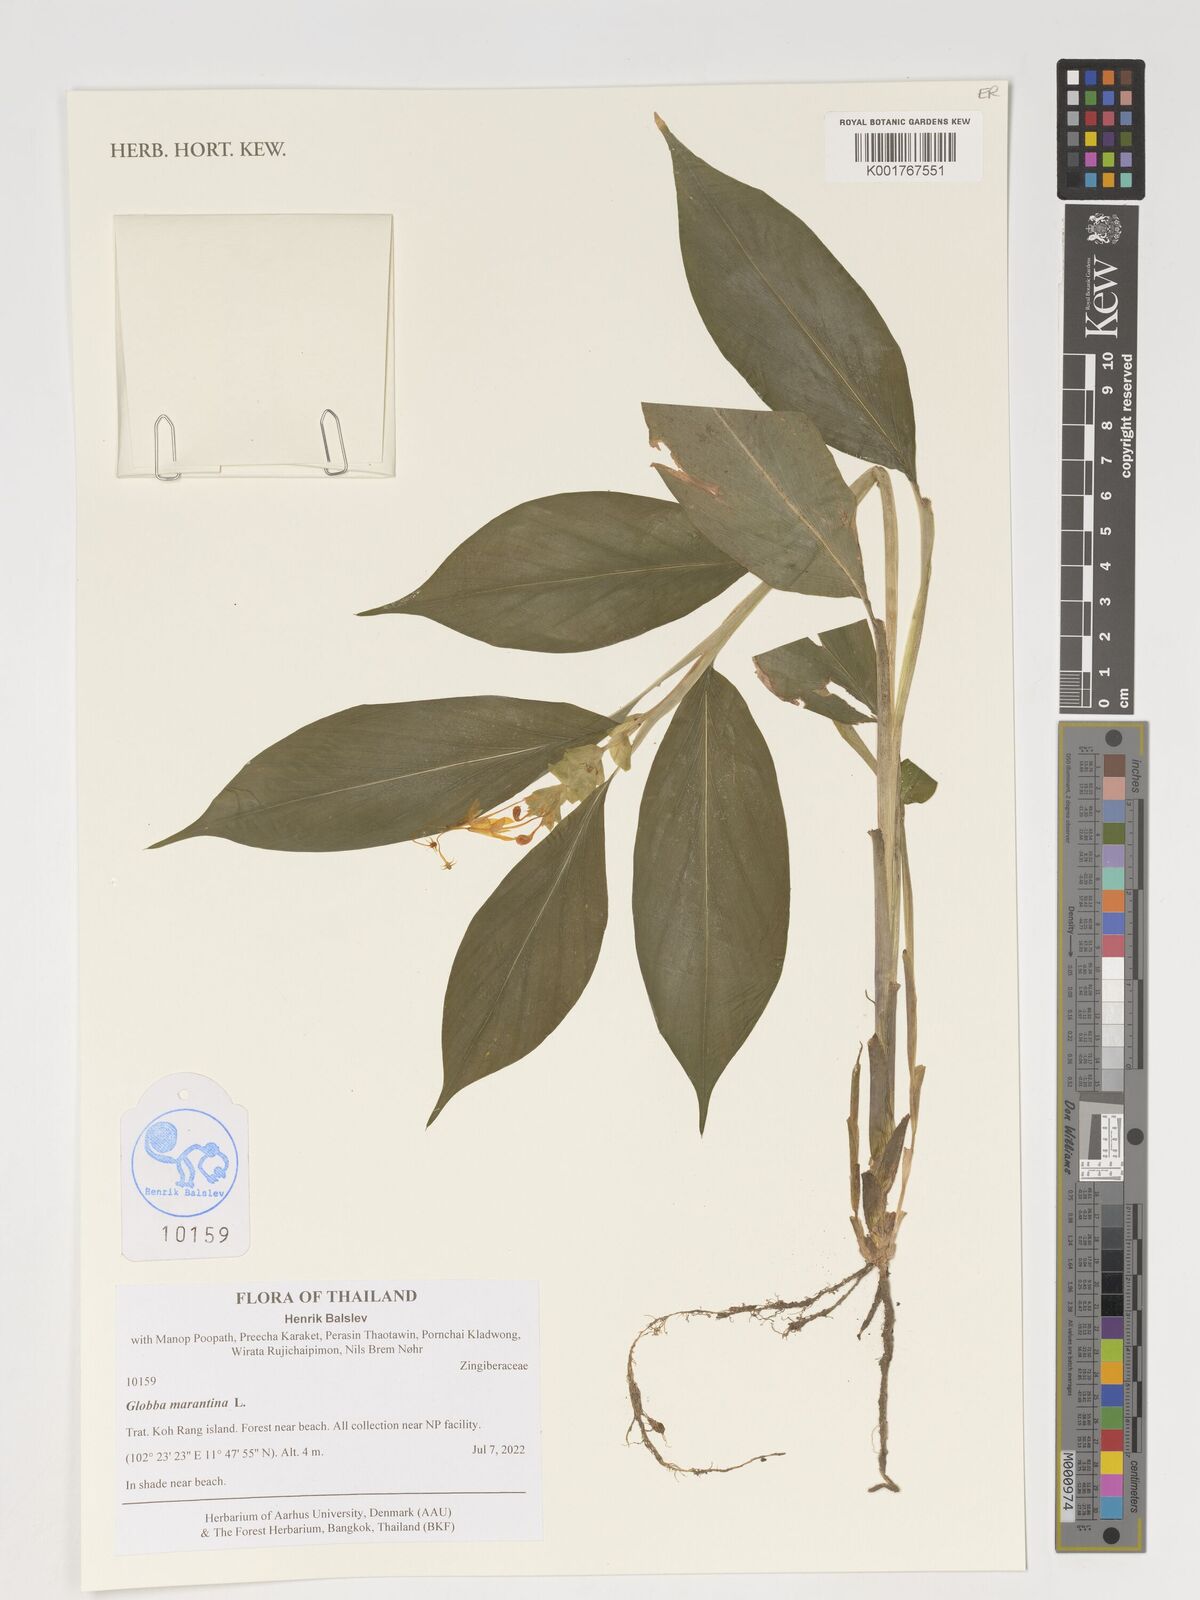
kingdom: Plantae
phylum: Tracheophyta
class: Liliopsida
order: Zingiberales
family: Zingiberaceae
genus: Globba
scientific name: Globba marantina
